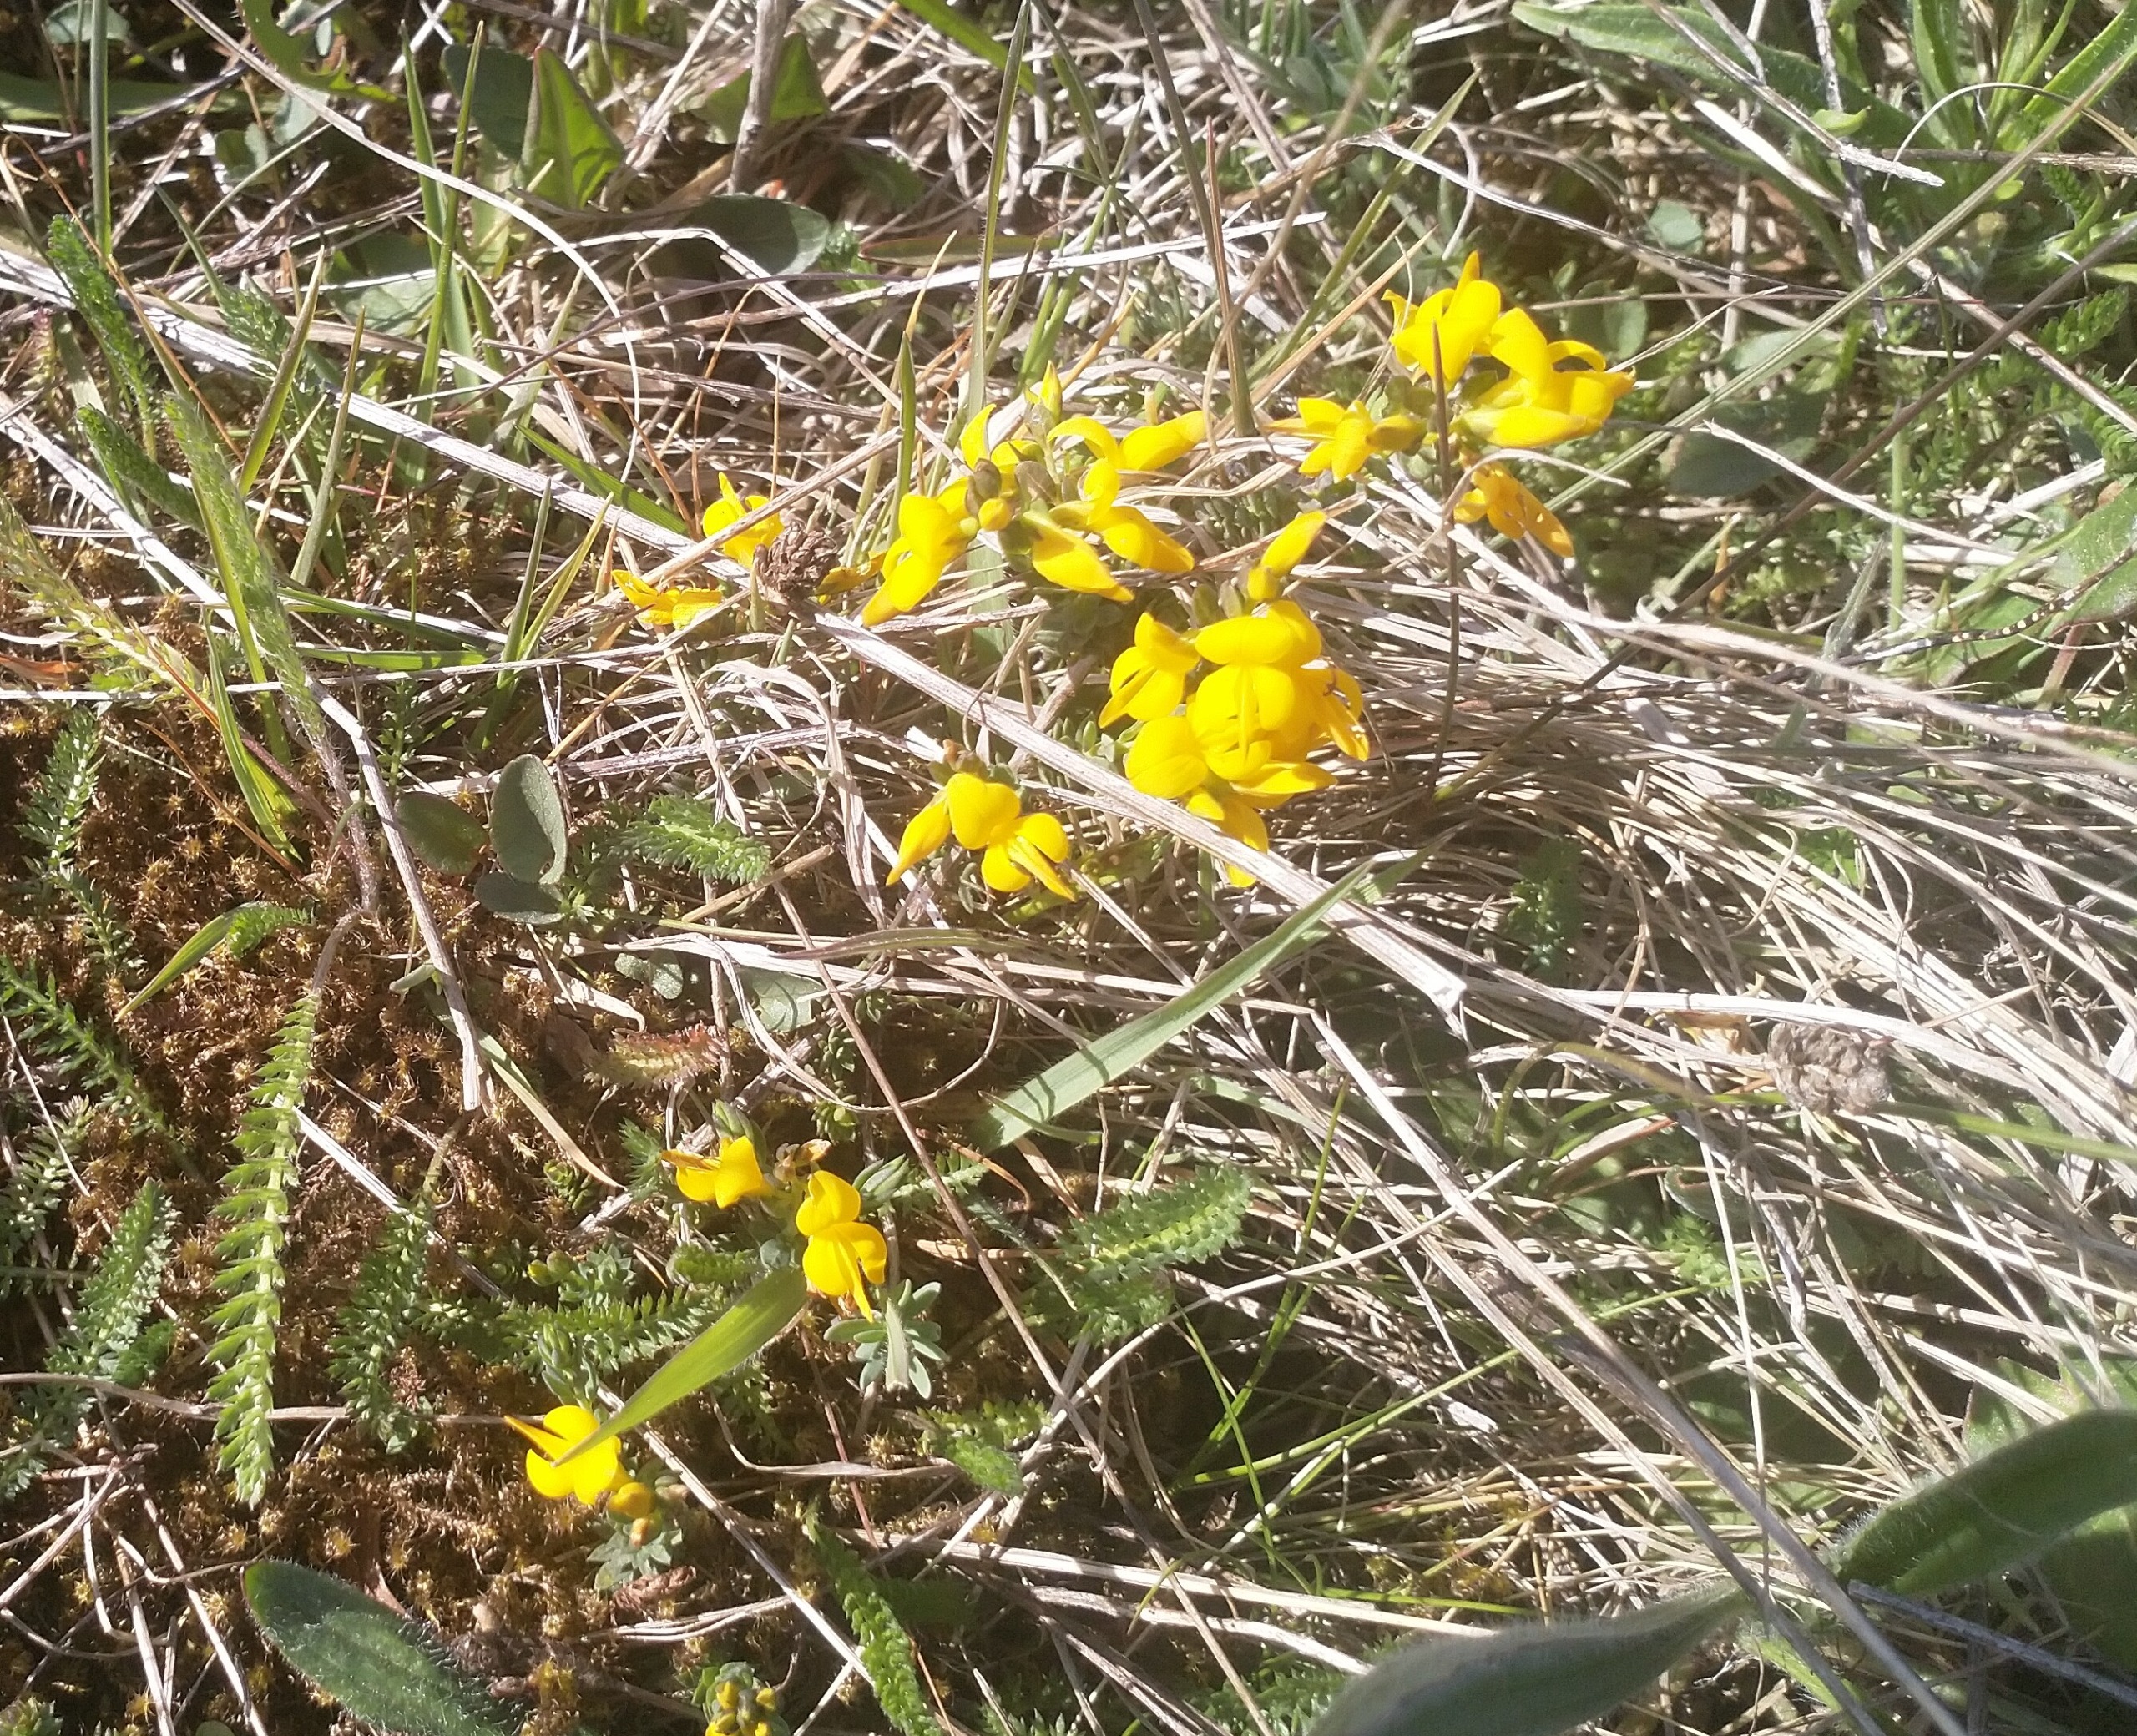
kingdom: Plantae
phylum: Tracheophyta
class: Magnoliopsida
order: Fabales
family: Fabaceae
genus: Genista
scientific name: Genista anglica
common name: Engelsk visse
